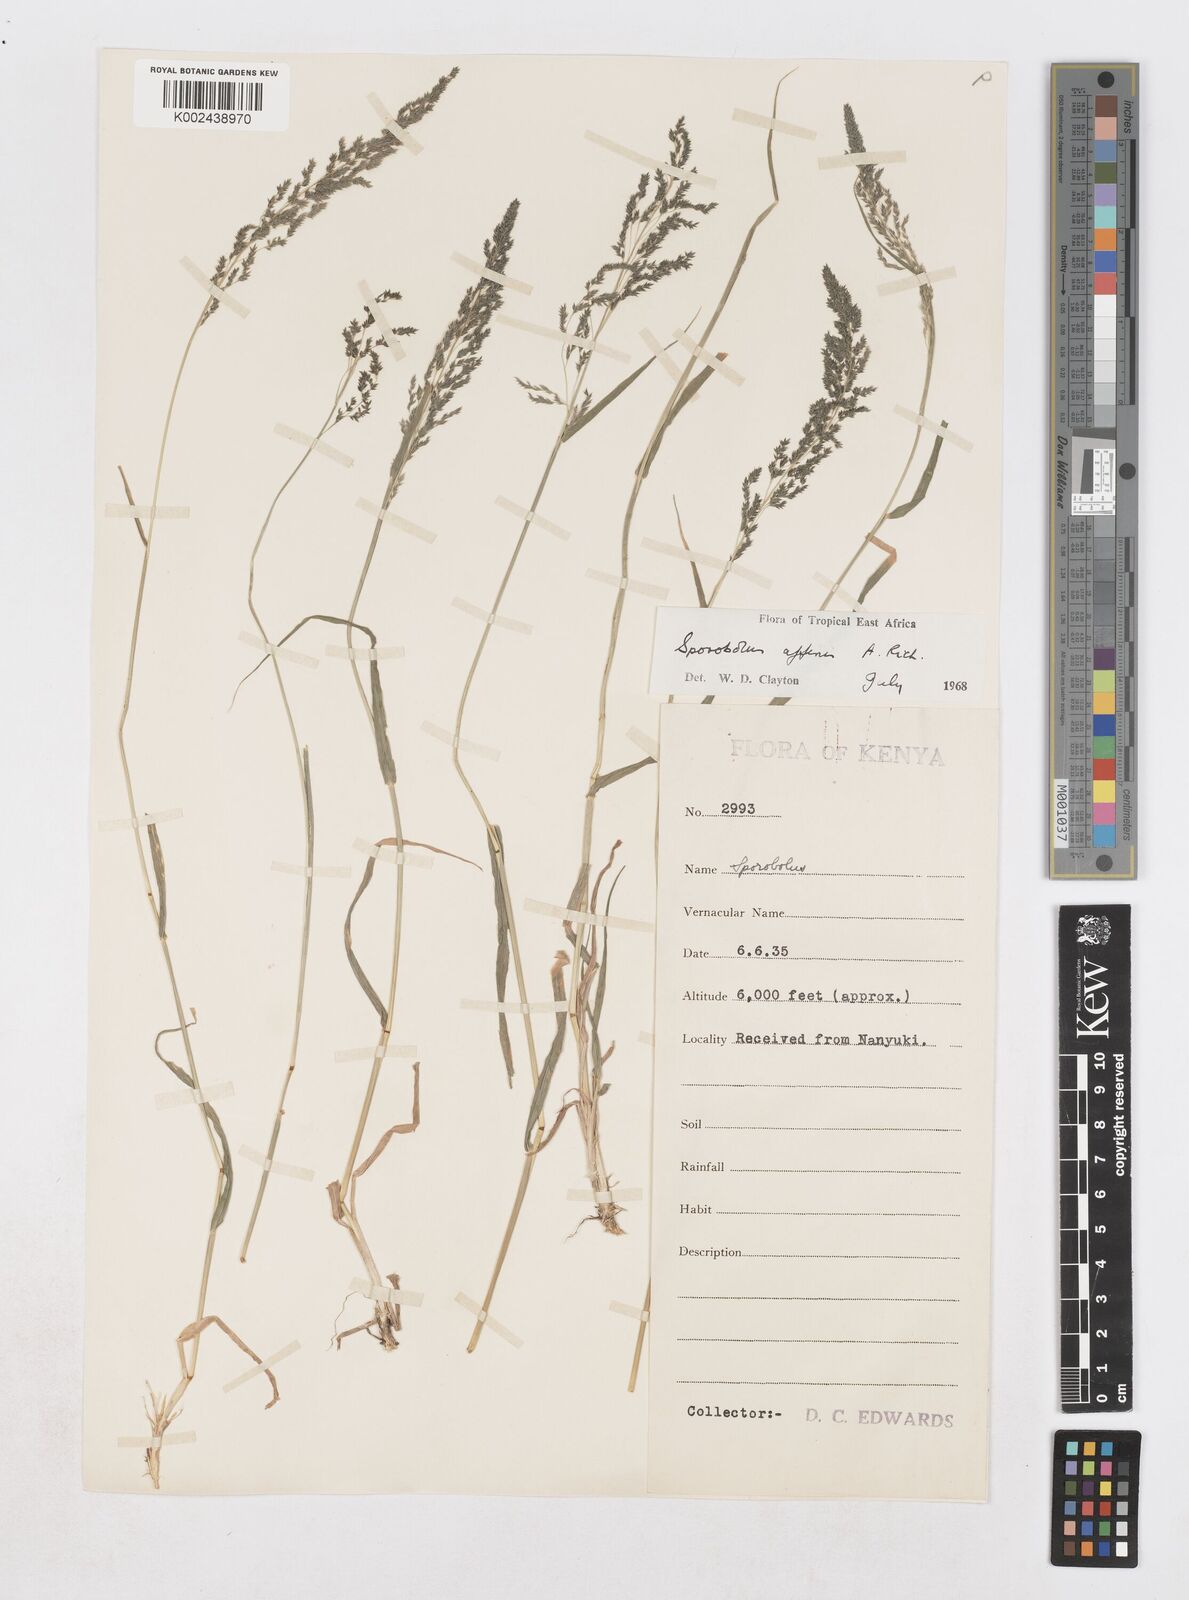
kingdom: Plantae
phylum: Tracheophyta
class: Liliopsida
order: Poales
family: Poaceae
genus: Sporobolus
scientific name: Sporobolus confinis
